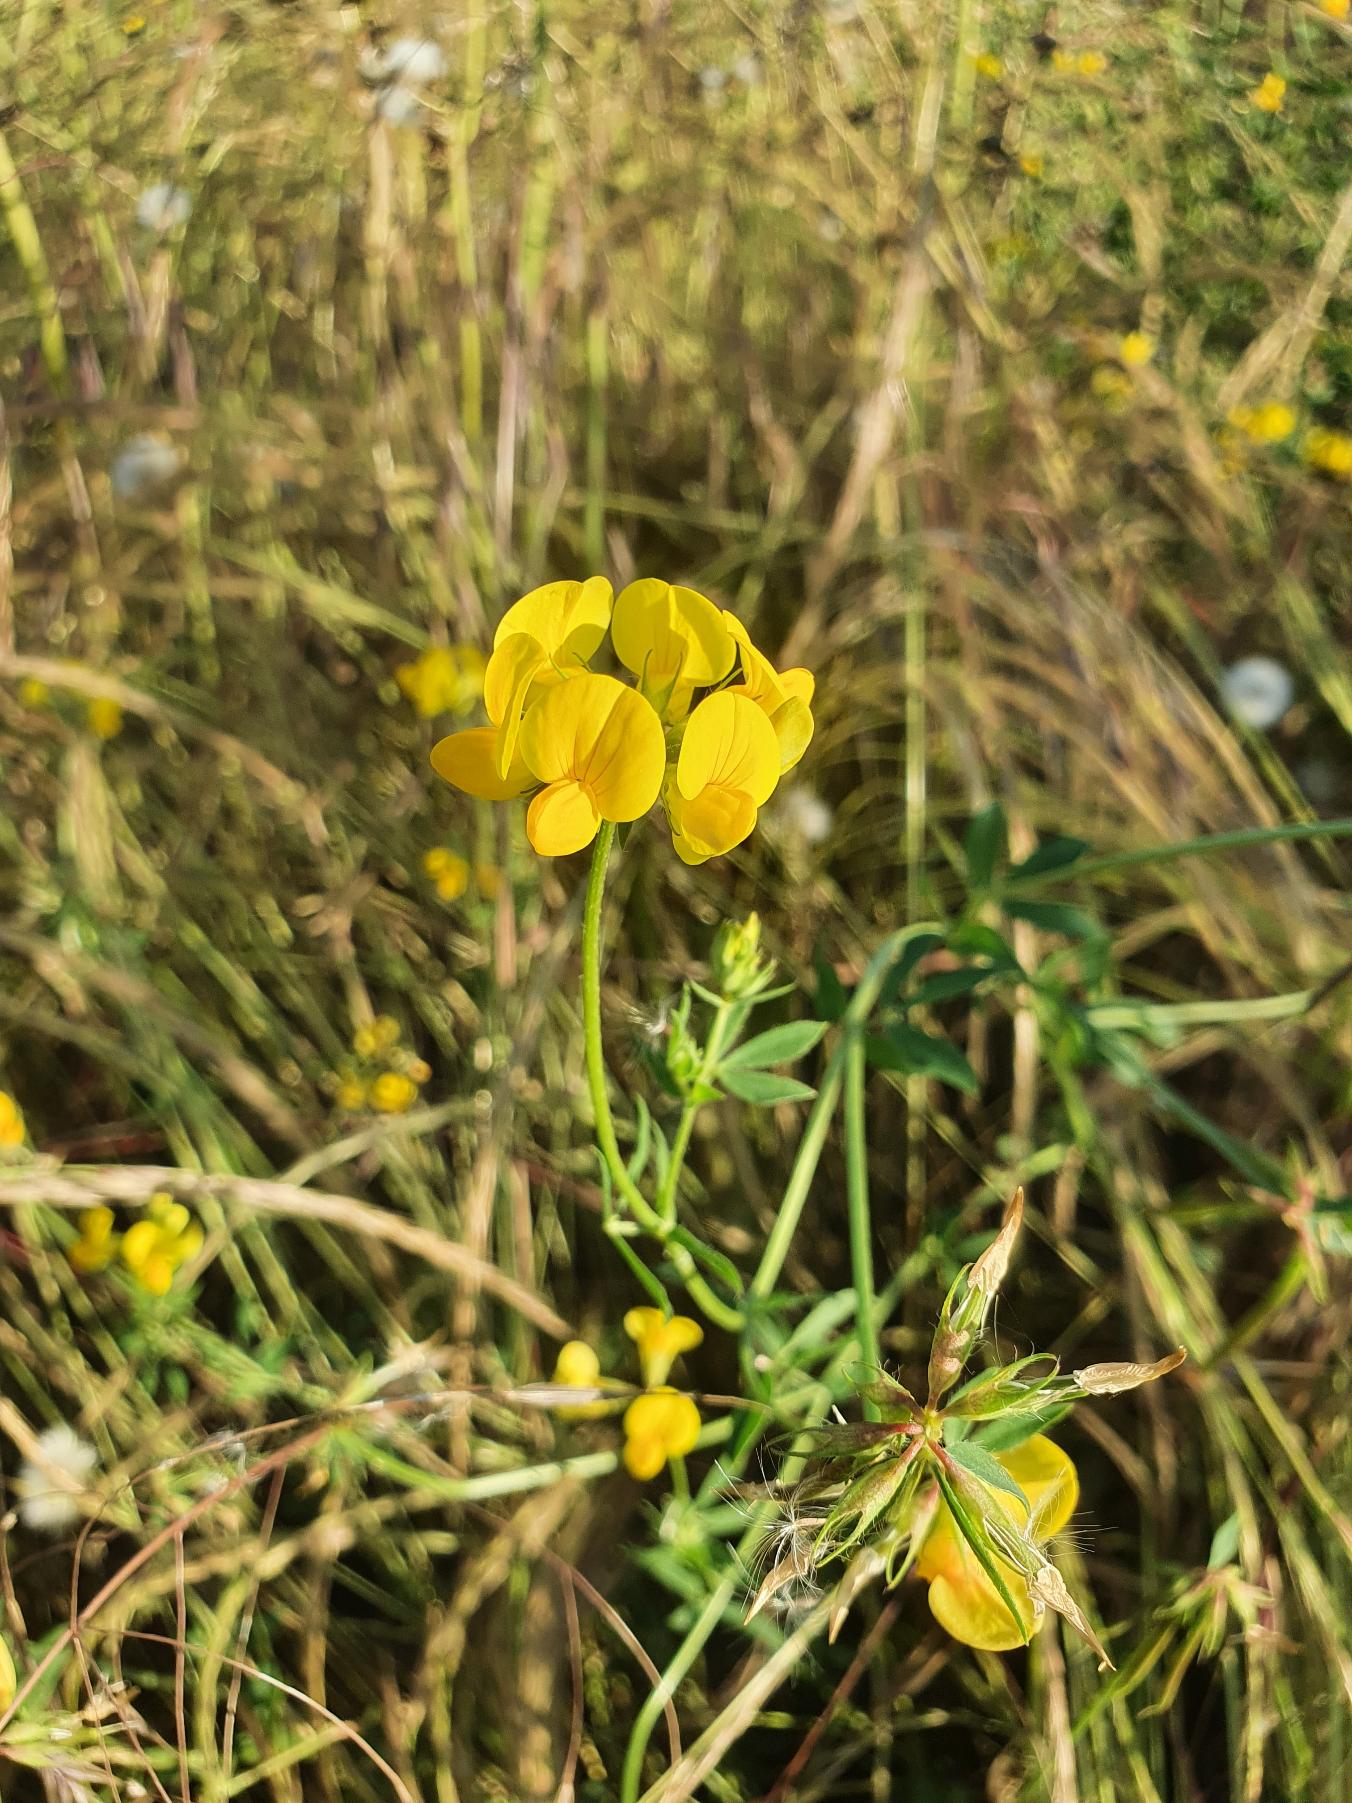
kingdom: Plantae
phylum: Tracheophyta
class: Magnoliopsida
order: Fabales
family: Fabaceae
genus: Lotus
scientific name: Lotus corniculatus
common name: Almindelig kællingetand
